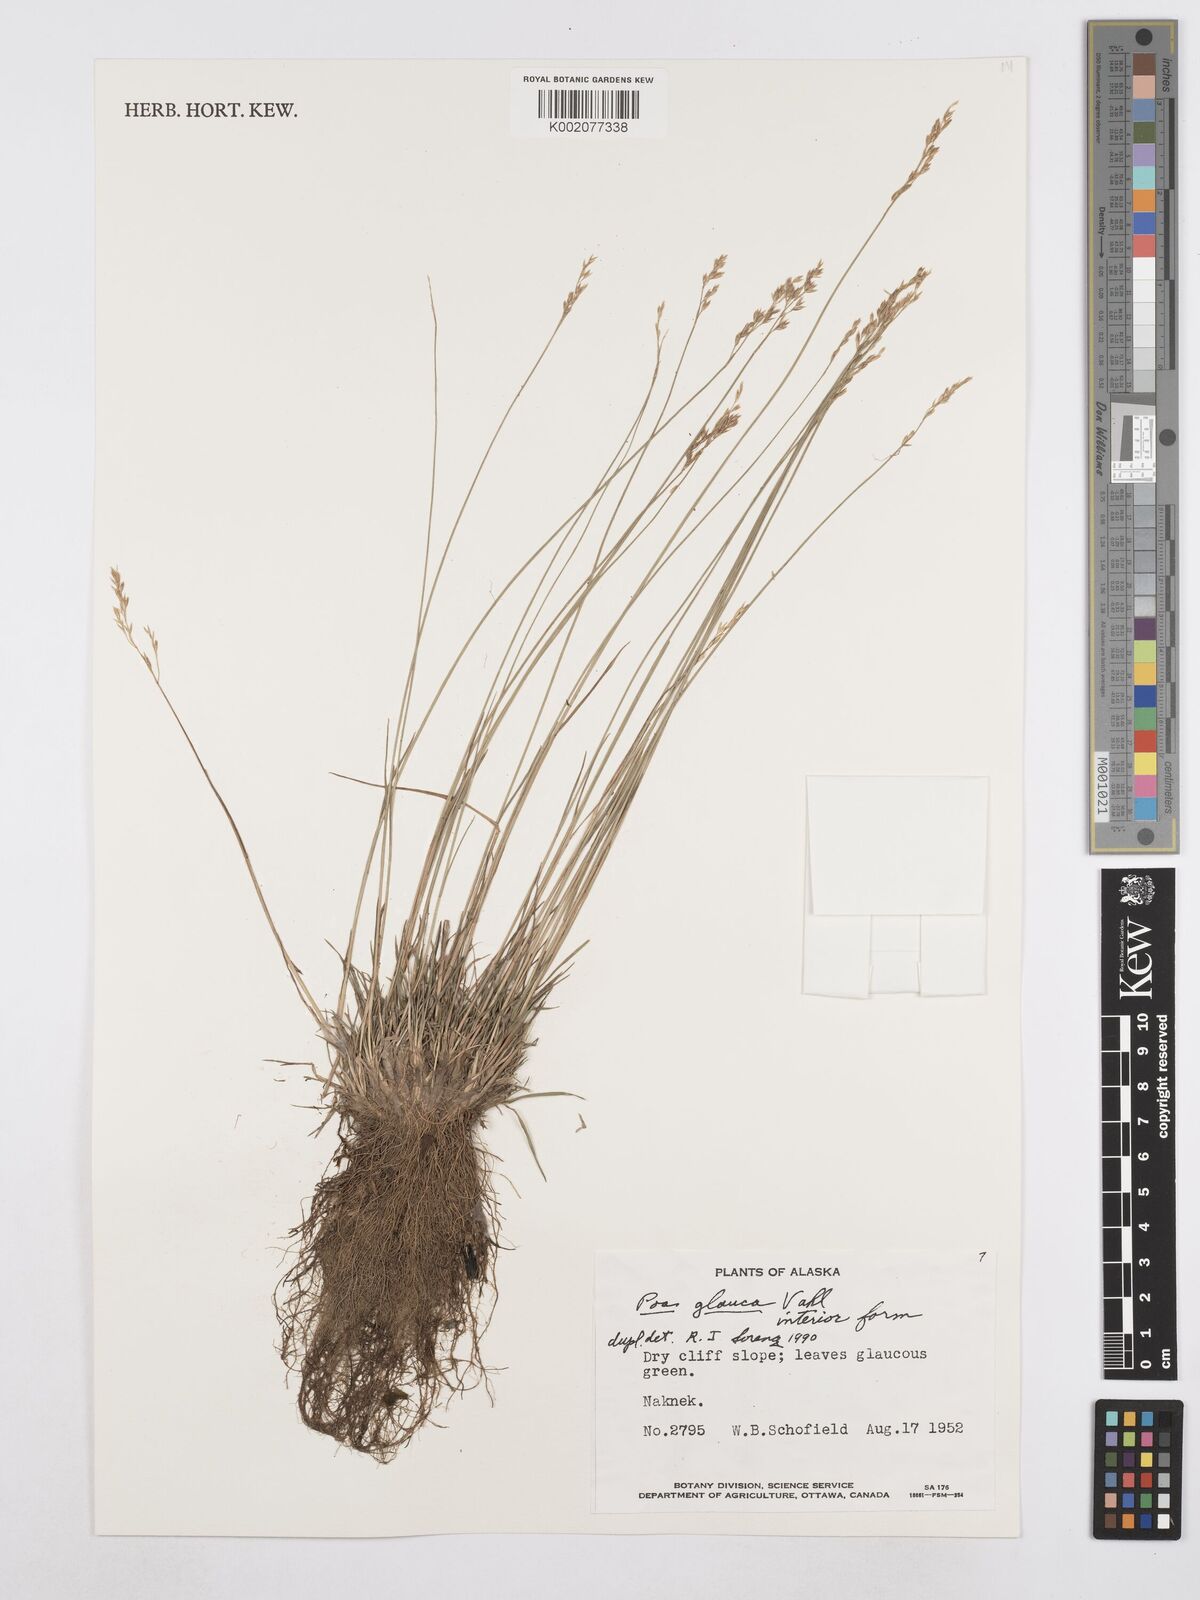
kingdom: Plantae
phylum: Tracheophyta
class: Liliopsida
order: Poales
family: Poaceae
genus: Poa
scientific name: Poa glauca
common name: Glaucous bluegrass
